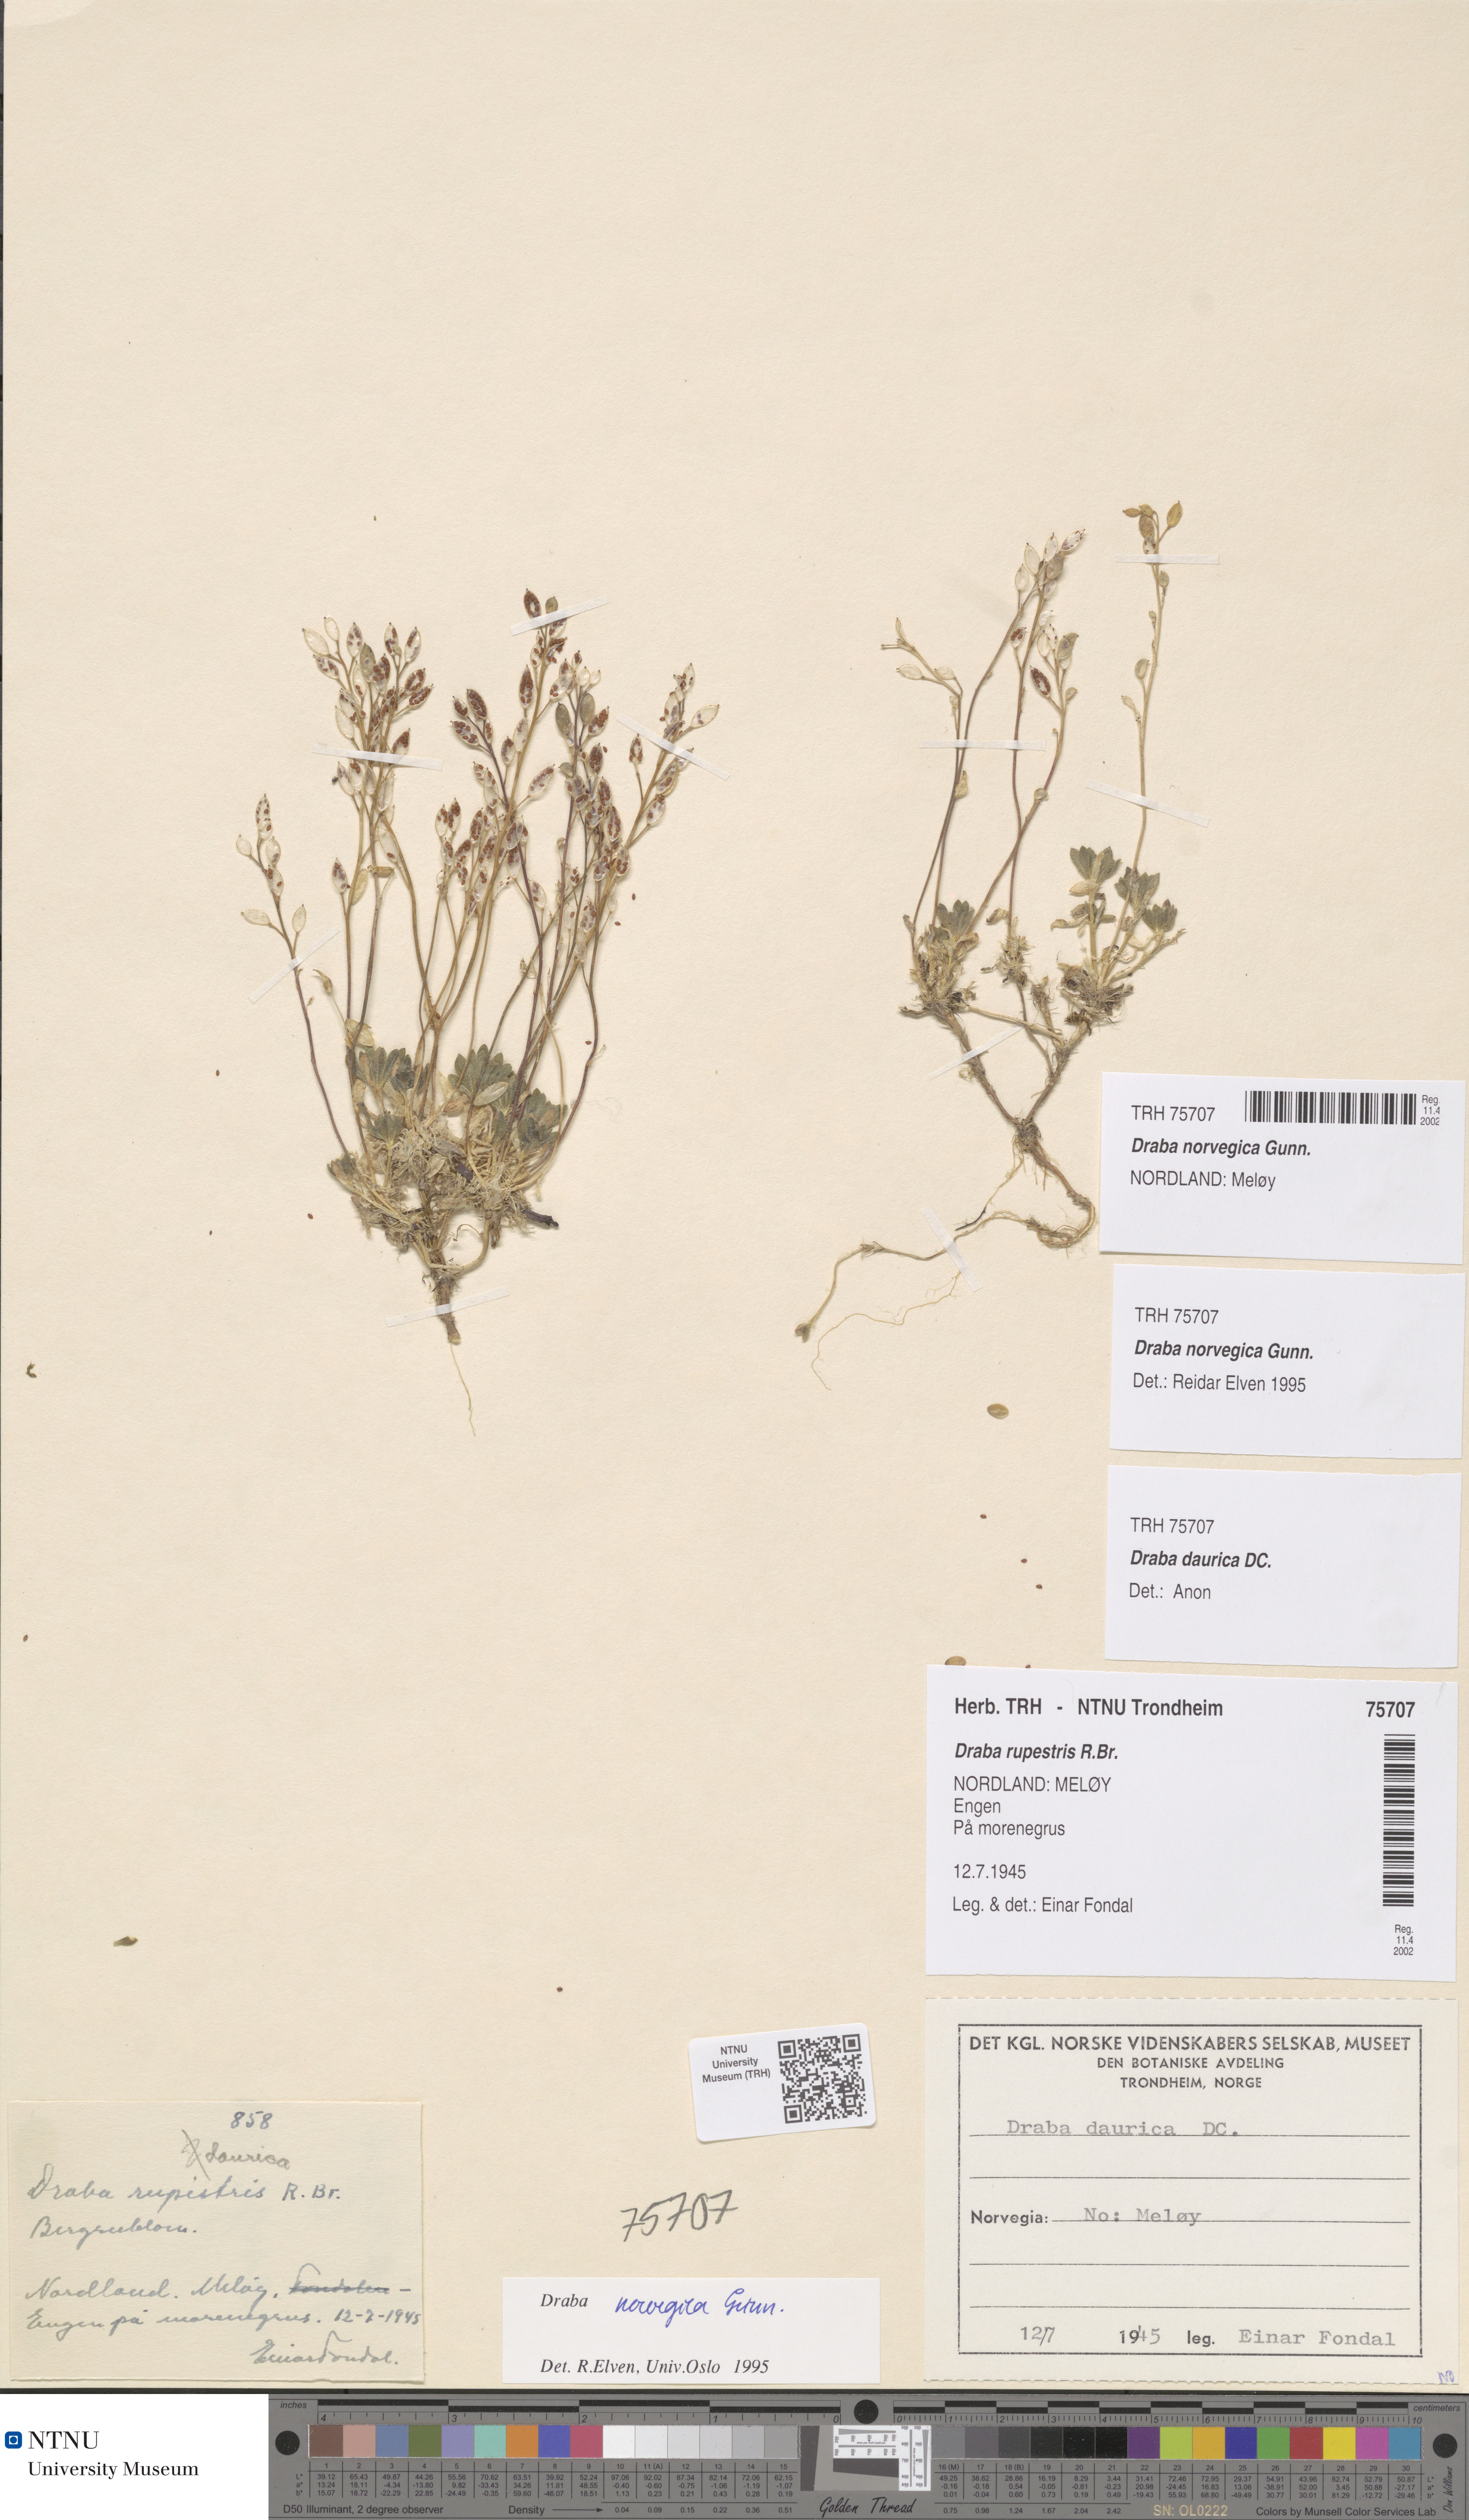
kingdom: Plantae
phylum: Tracheophyta
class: Magnoliopsida
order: Brassicales
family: Brassicaceae
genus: Draba
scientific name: Draba norvegica
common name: Rock whitlowgrass
